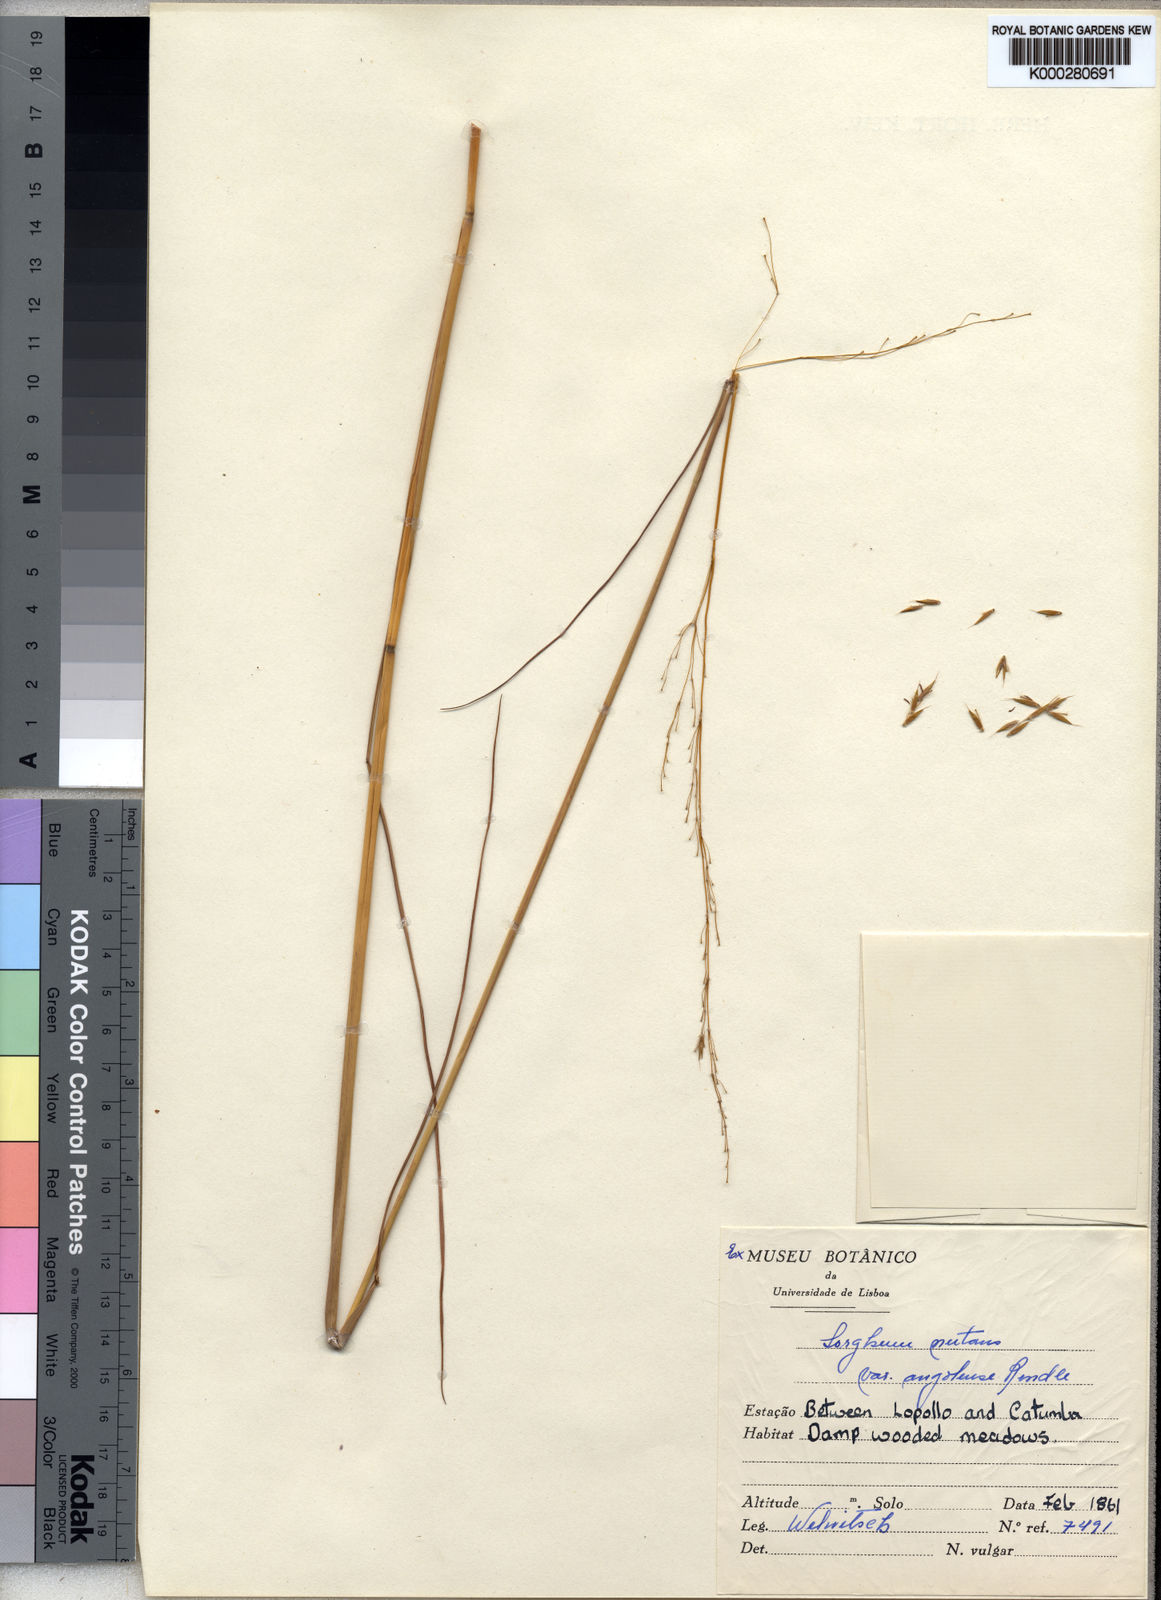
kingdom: Plantae
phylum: Tracheophyta
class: Liliopsida
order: Poales
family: Poaceae
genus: Sorghastrum
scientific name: Sorghastrum nudipes
